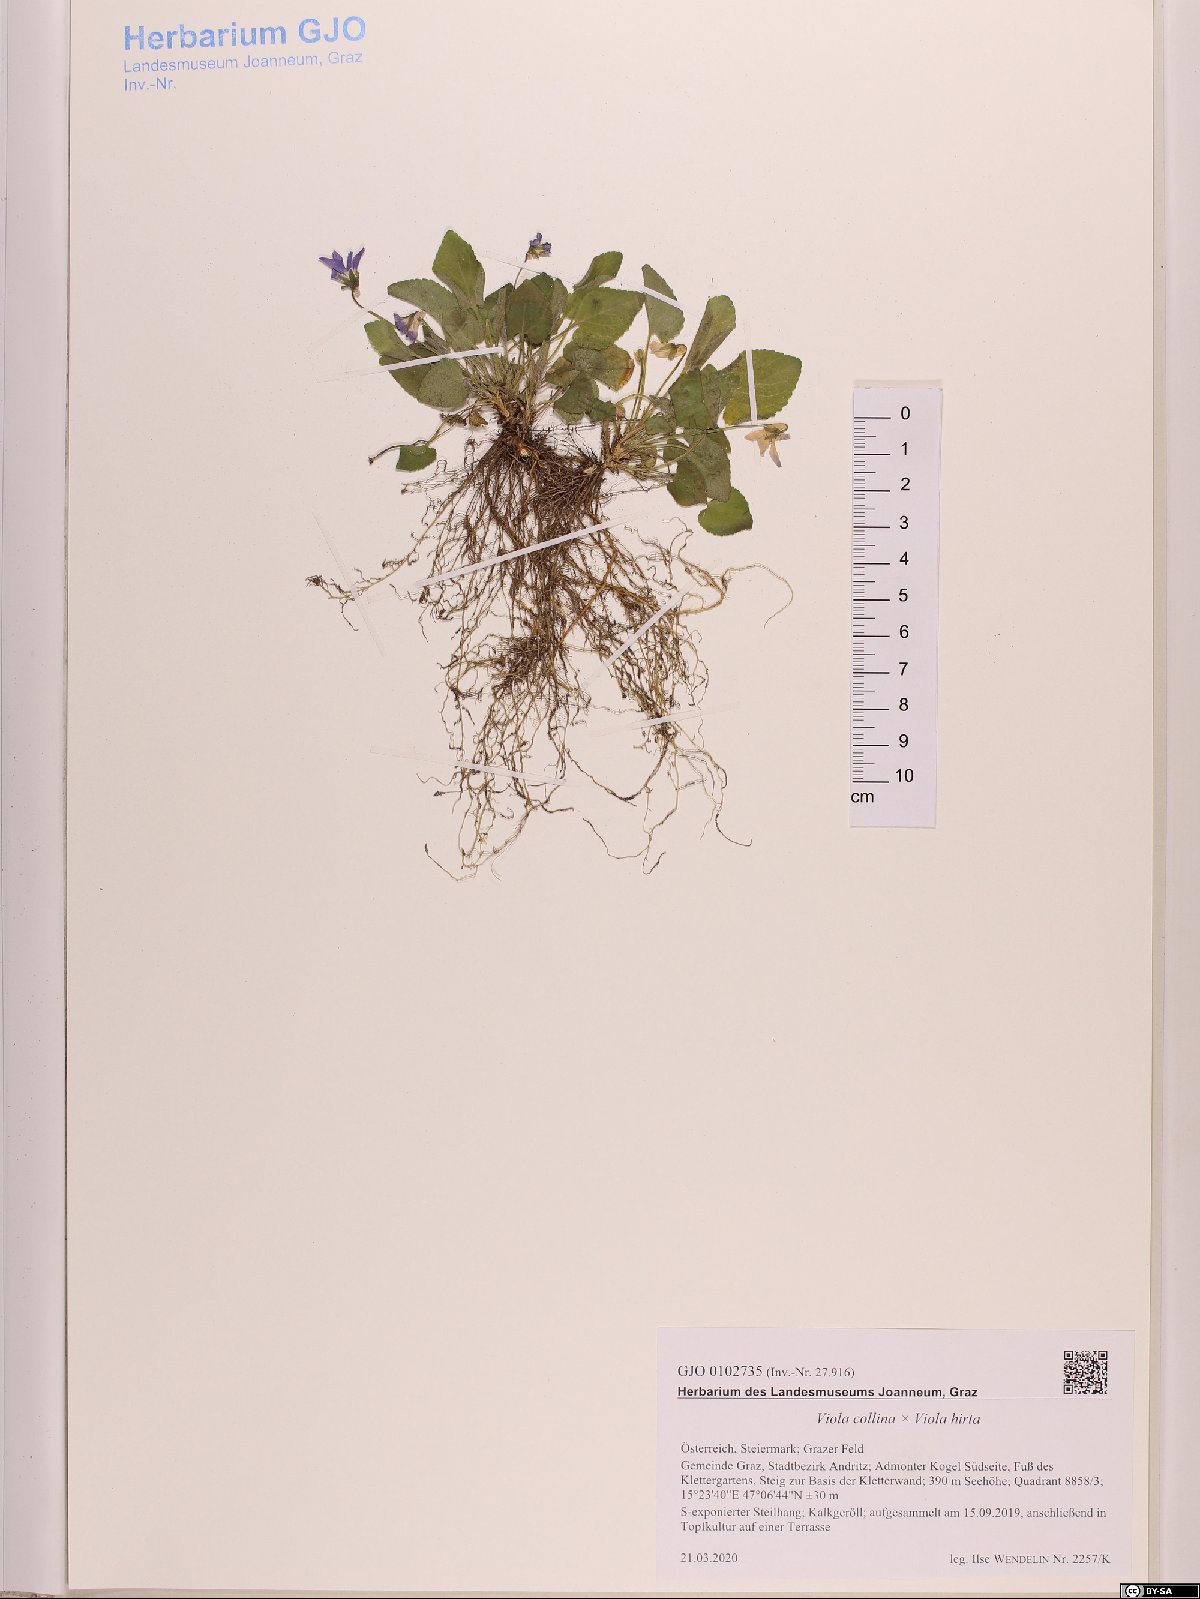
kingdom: Plantae
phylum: Tracheophyta
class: Magnoliopsida
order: Malpighiales
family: Violaceae
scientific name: Violaceae
